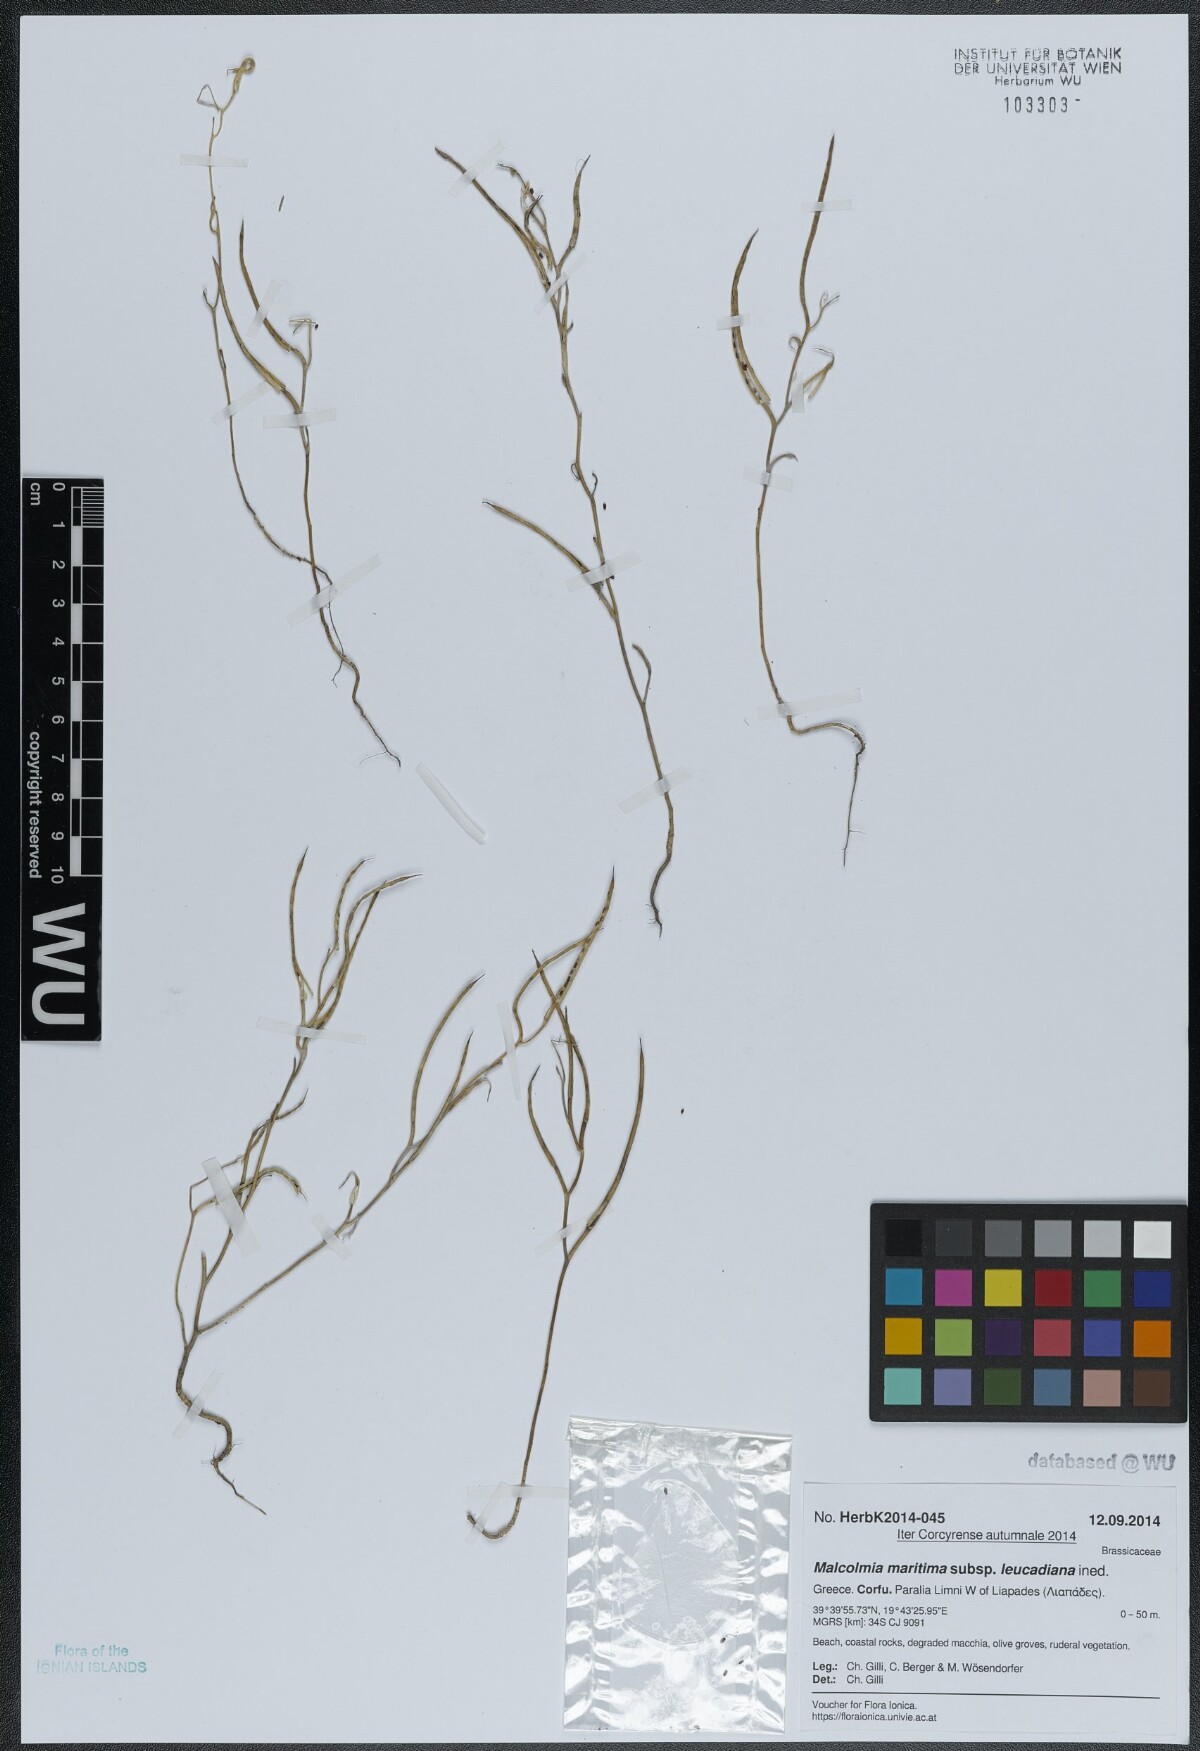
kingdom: Plantae
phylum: Tracheophyta
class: Magnoliopsida
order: Brassicales
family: Brassicaceae
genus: Malcolmia
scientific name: Malcolmia maritima
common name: Virginia stock
